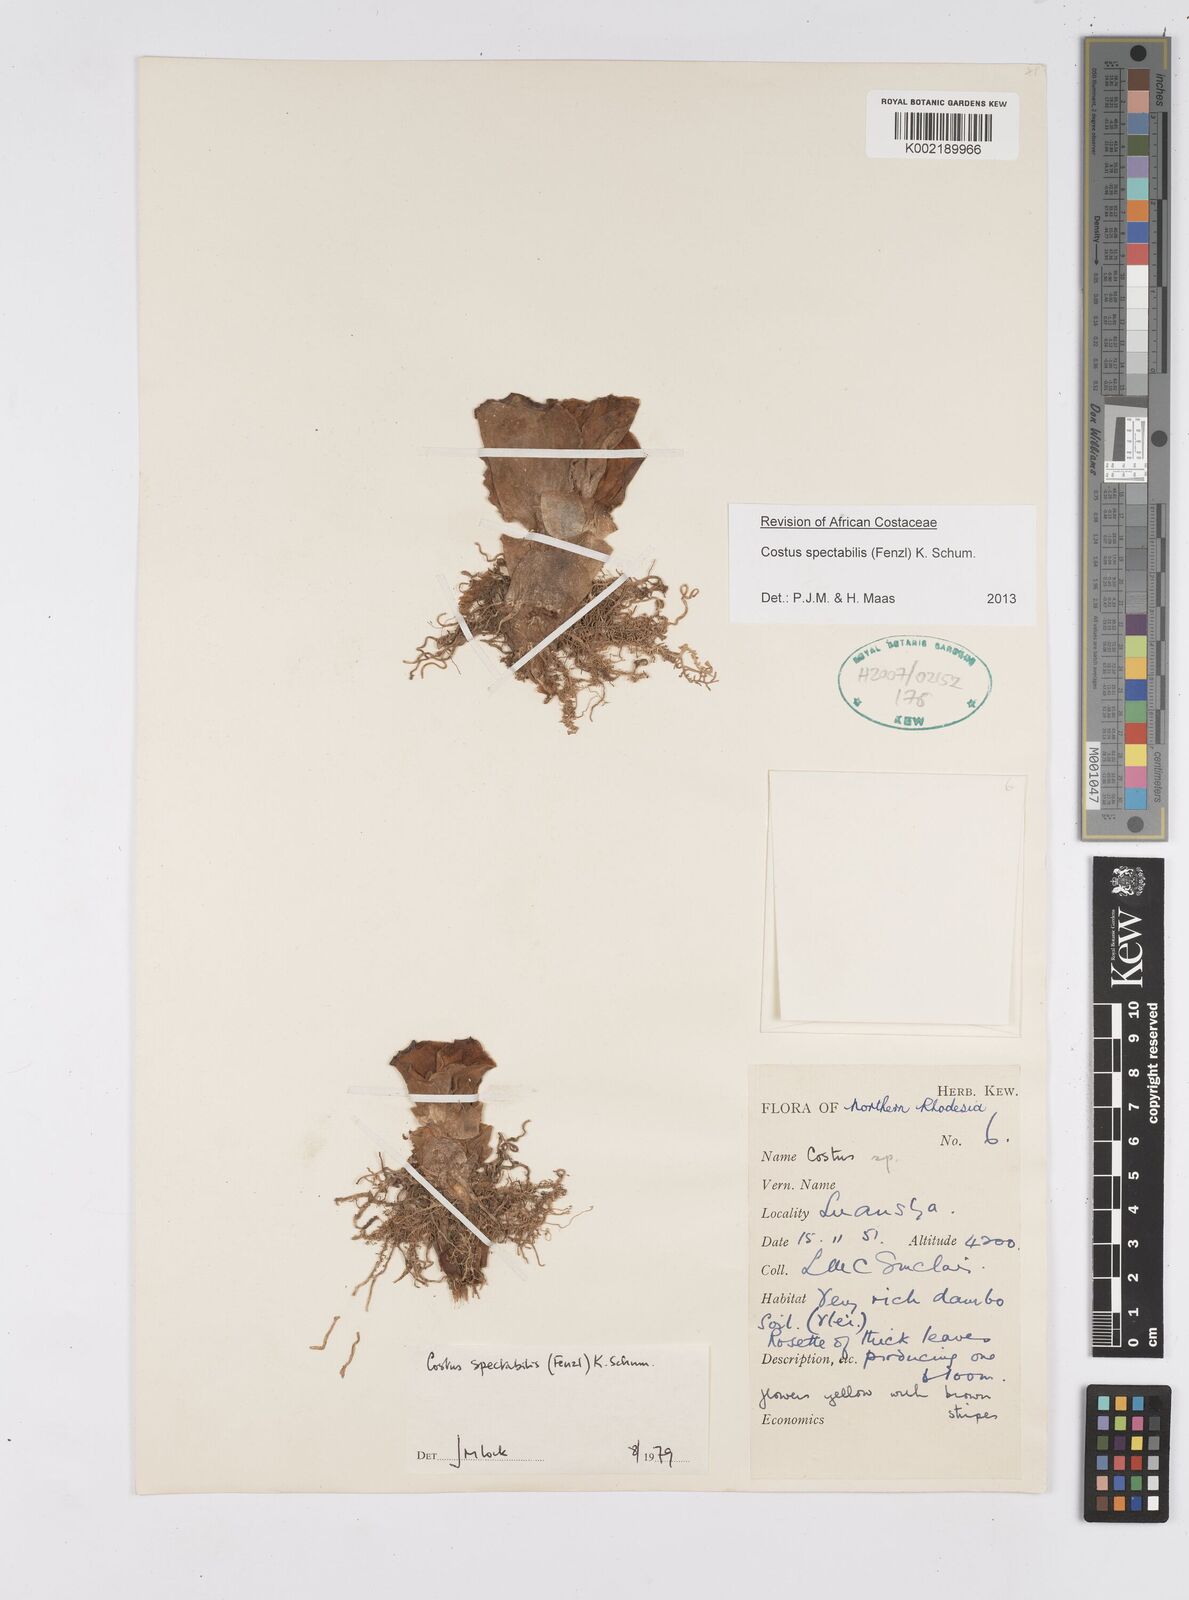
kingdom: Plantae
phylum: Tracheophyta
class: Liliopsida
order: Zingiberales
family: Costaceae
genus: Costus
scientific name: Costus spectabilis
